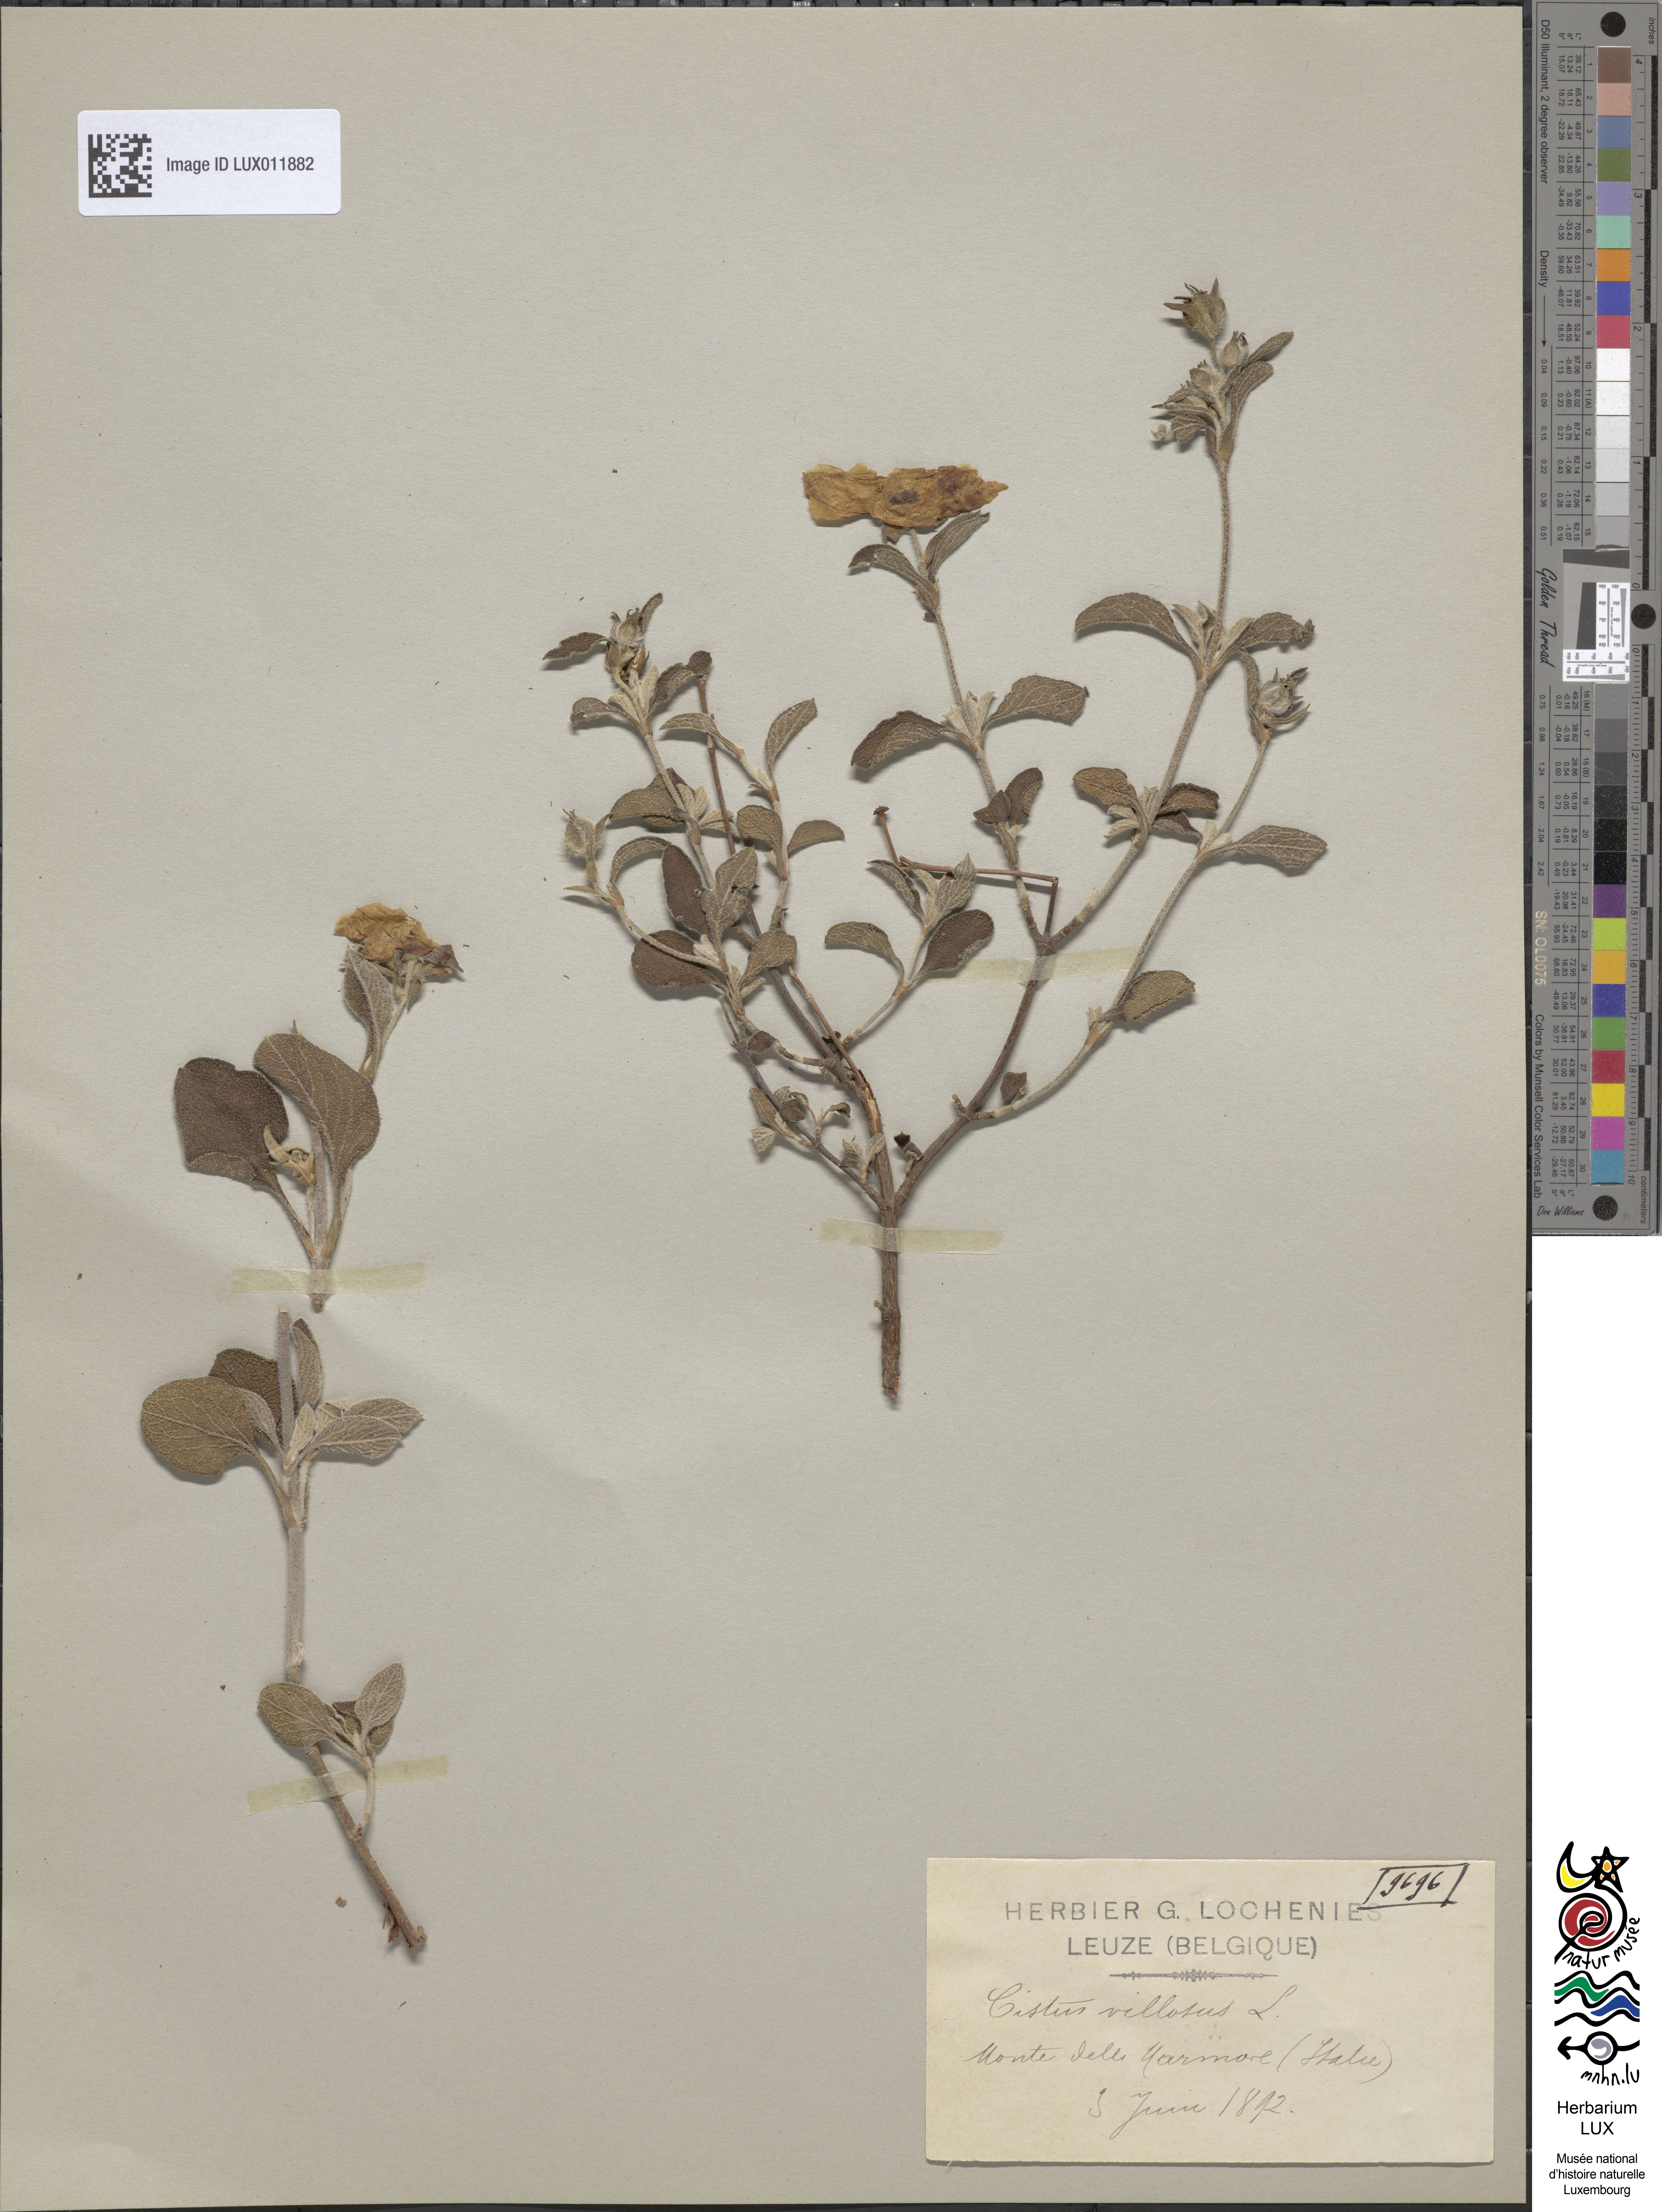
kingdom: Plantae
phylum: Tracheophyta
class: Magnoliopsida
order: Malvales
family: Cistaceae
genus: Cistus
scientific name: Cistus creticus
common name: Cretan rockrose
